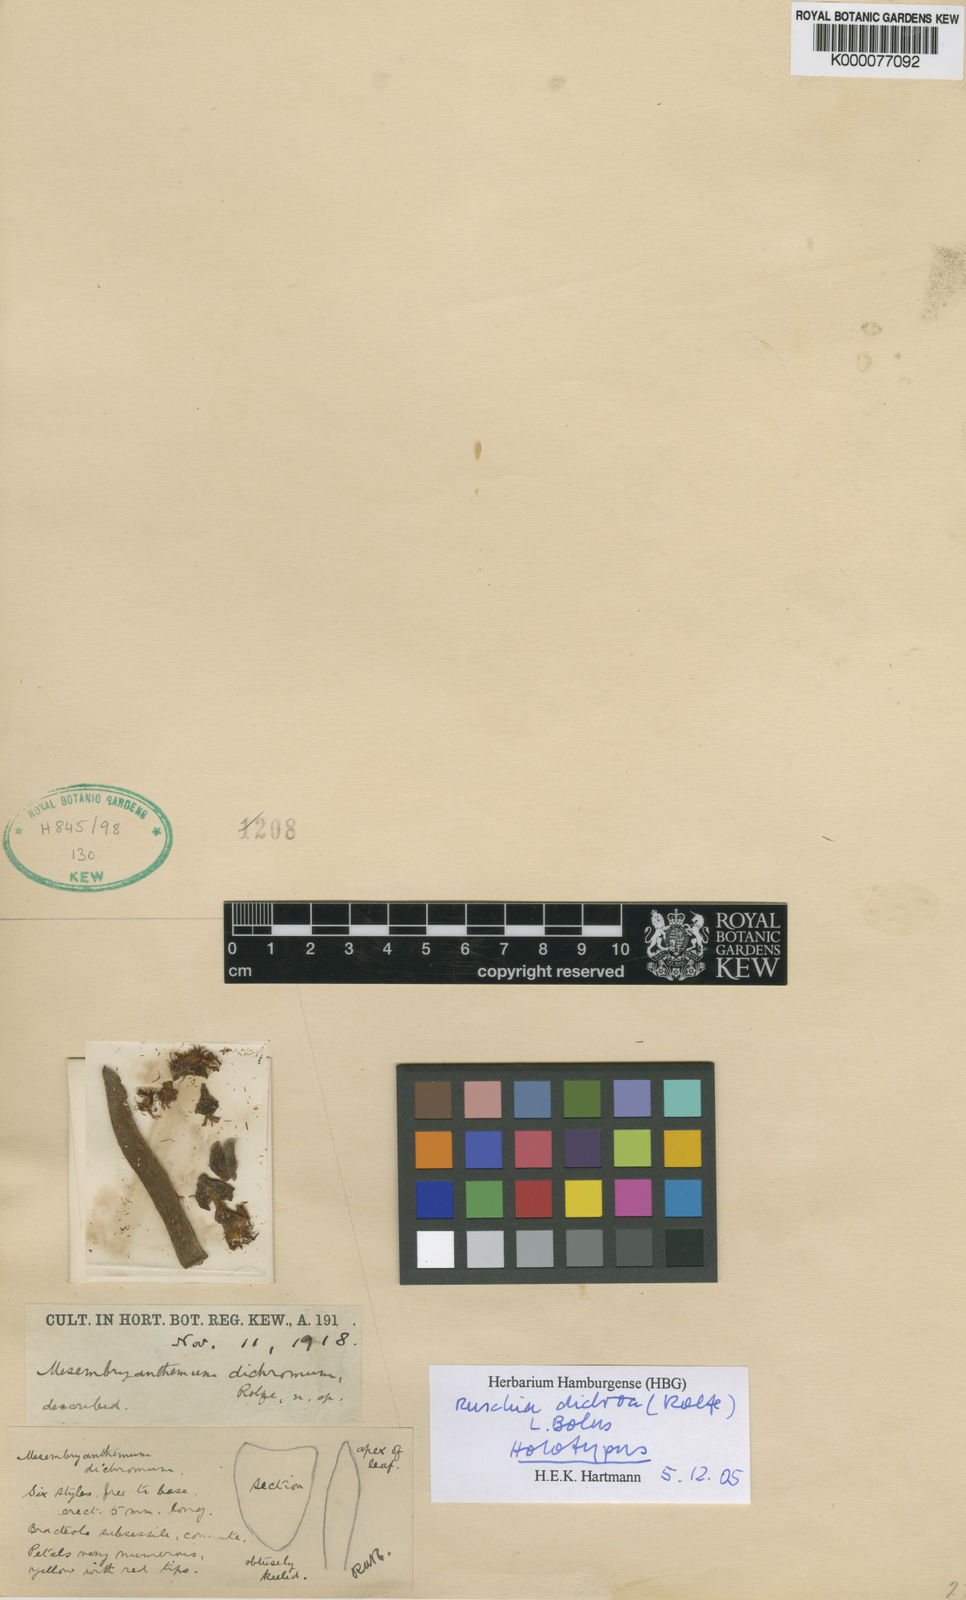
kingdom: Plantae
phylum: Tracheophyta
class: Magnoliopsida
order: Caryophyllales
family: Aizoaceae
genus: Ruschia
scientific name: Ruschia dichroa
